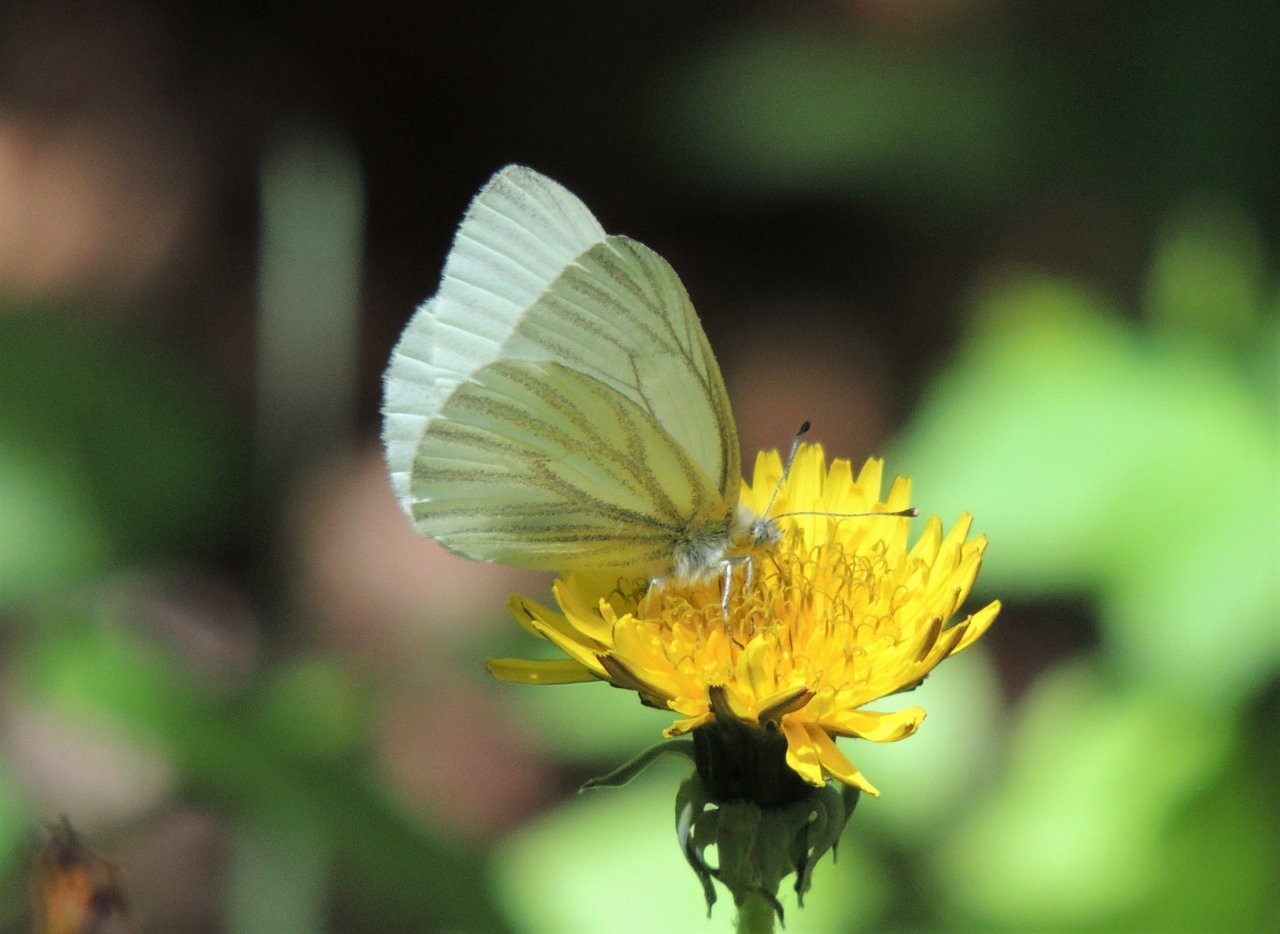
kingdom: Animalia
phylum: Arthropoda
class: Insecta
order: Lepidoptera
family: Pieridae
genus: Pieris
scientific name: Pieris marginalis
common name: Margined White
